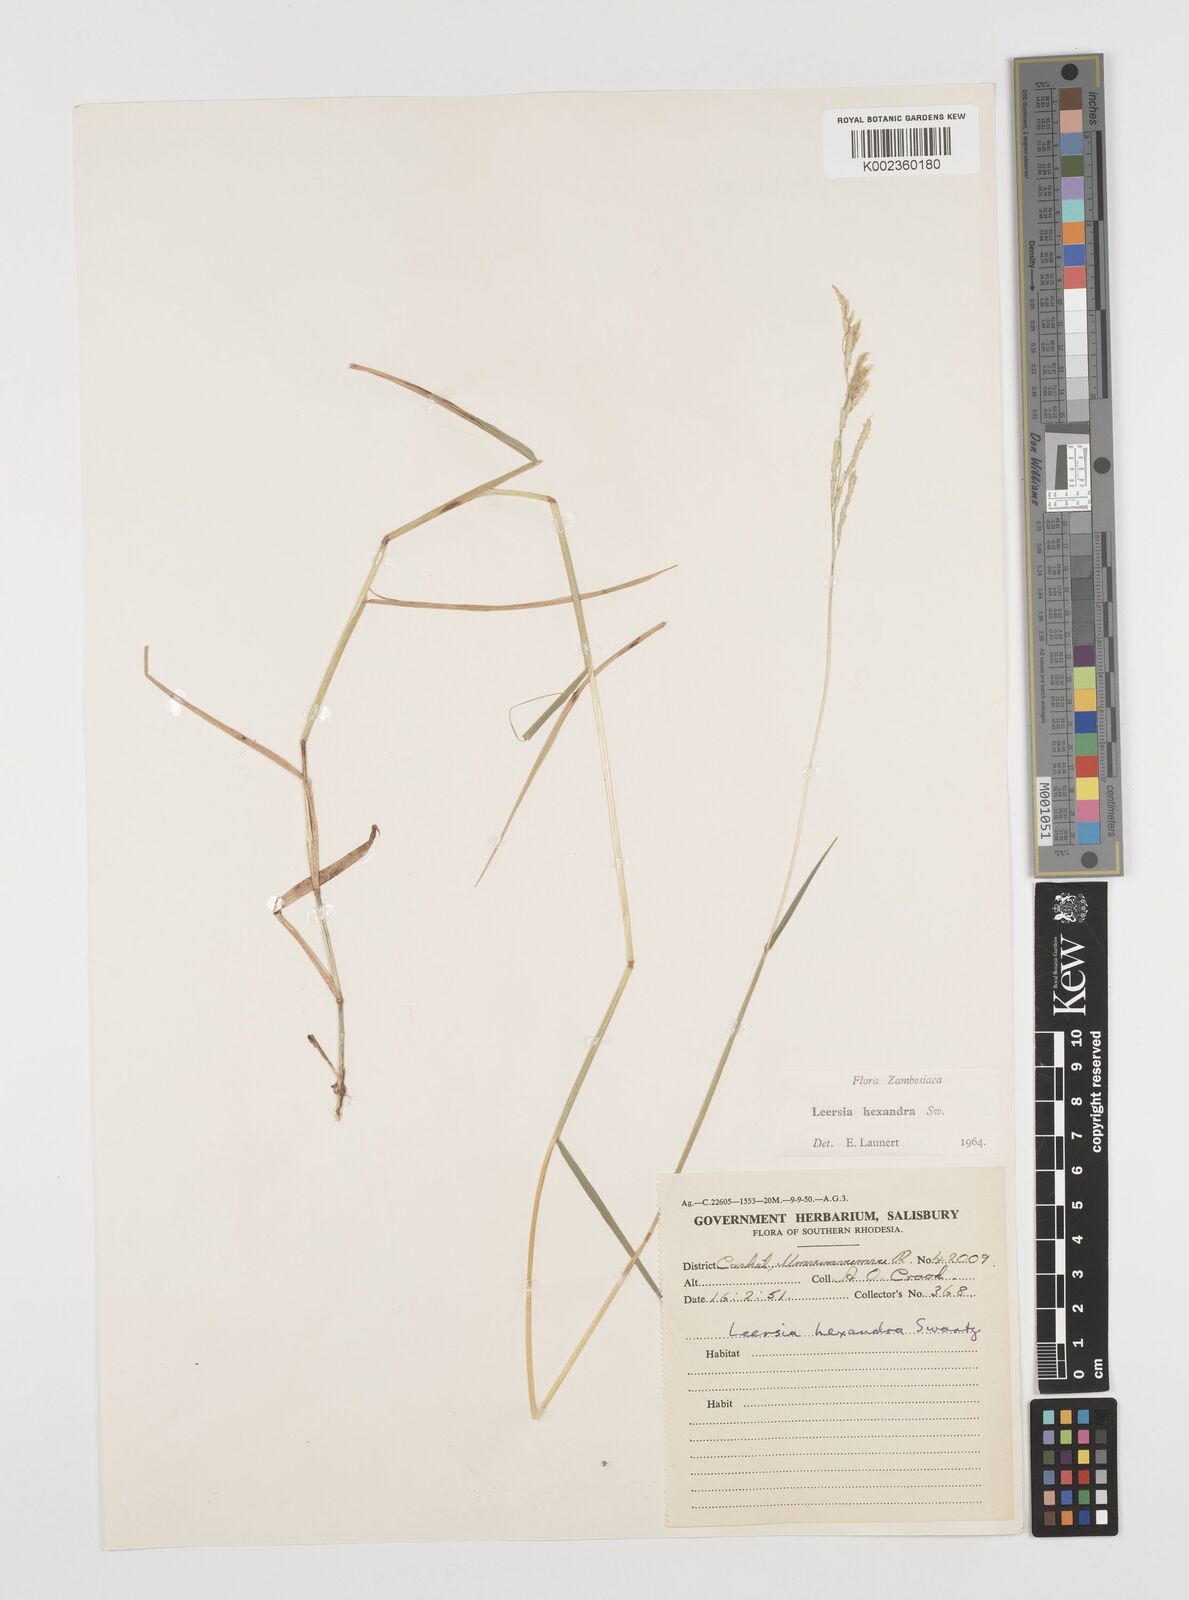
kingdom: Plantae
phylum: Tracheophyta
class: Liliopsida
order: Poales
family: Poaceae
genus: Leersia
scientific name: Leersia hexandra
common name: Southern cut grass
